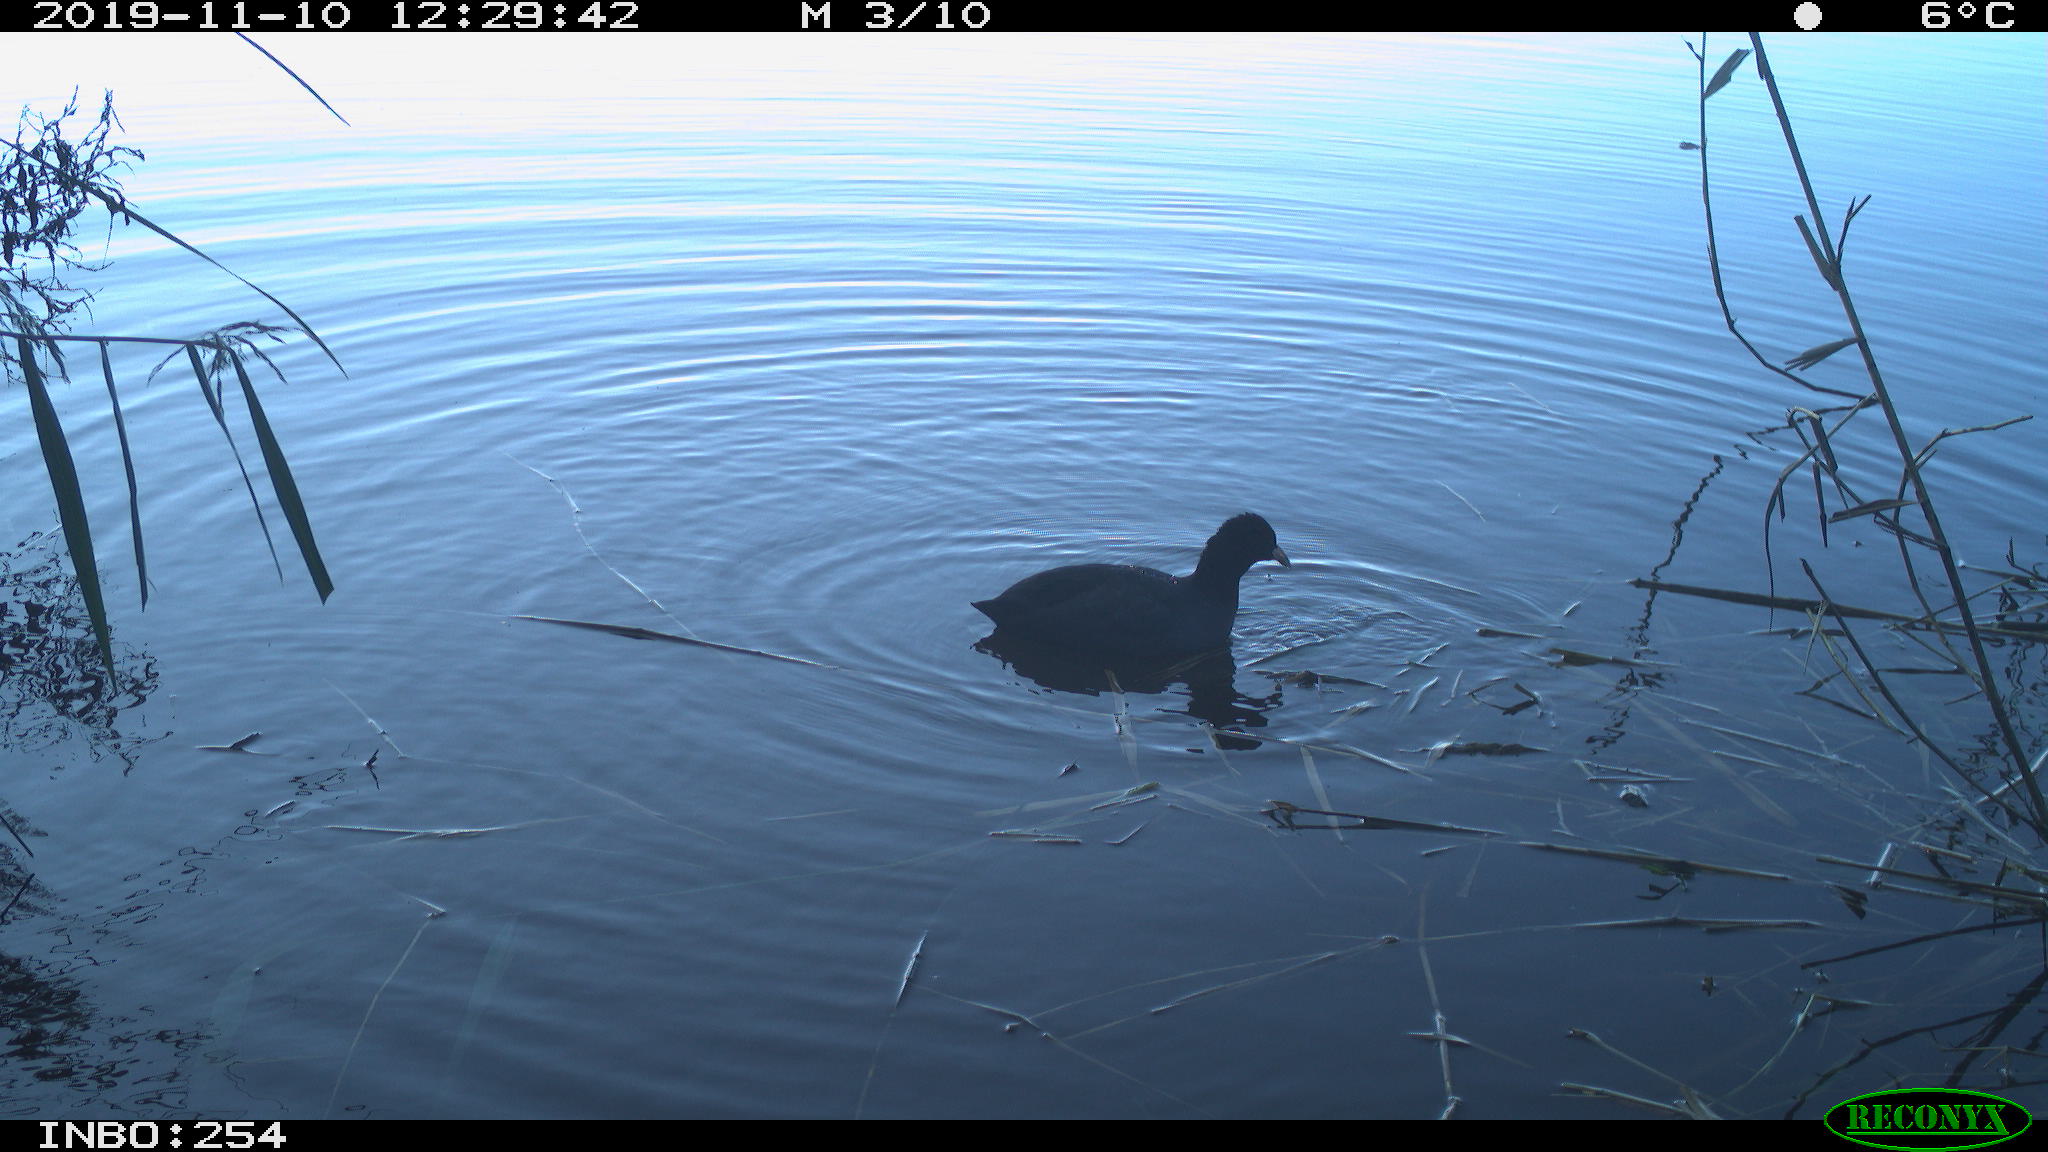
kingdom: Animalia
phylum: Chordata
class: Aves
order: Gruiformes
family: Rallidae
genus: Fulica
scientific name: Fulica atra
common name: Eurasian coot
